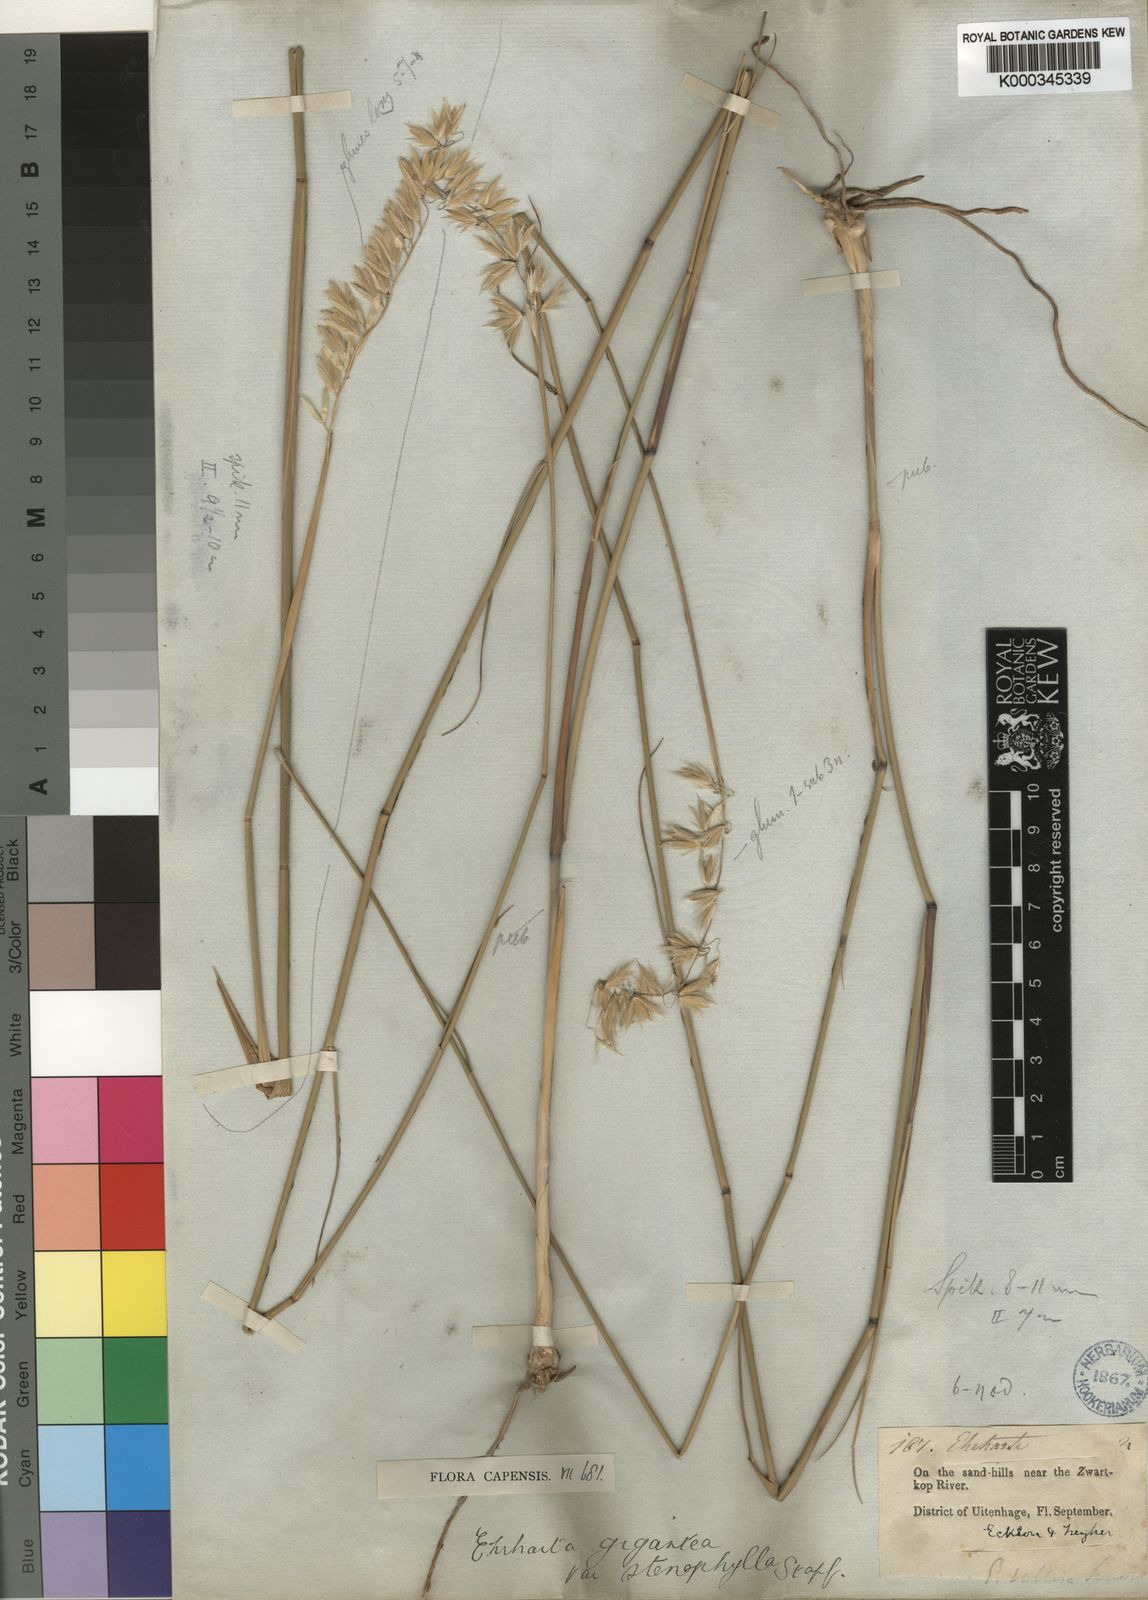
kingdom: Plantae
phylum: Tracheophyta
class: Liliopsida
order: Poales
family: Poaceae
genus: Ehrharta
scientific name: Ehrharta thunbergii
